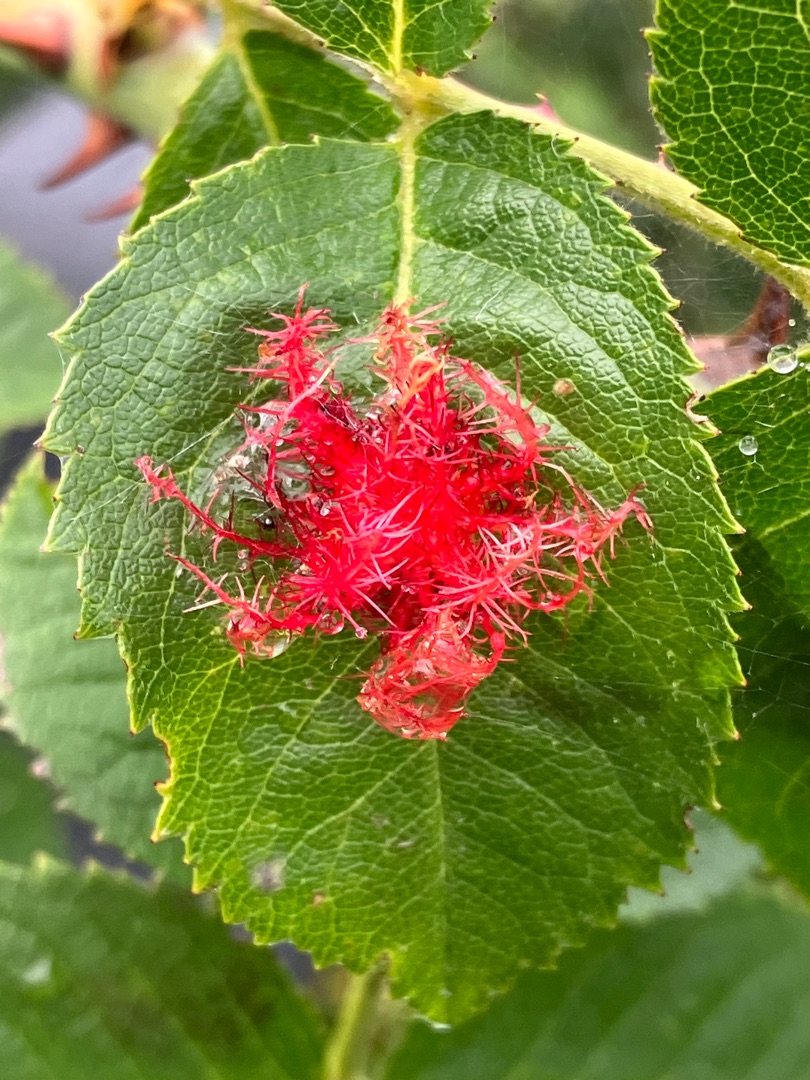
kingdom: Animalia
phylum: Arthropoda
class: Insecta
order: Hymenoptera
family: Cynipidae
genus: Diplolepis
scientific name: Diplolepis rosae
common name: Bedeguargalhveps
